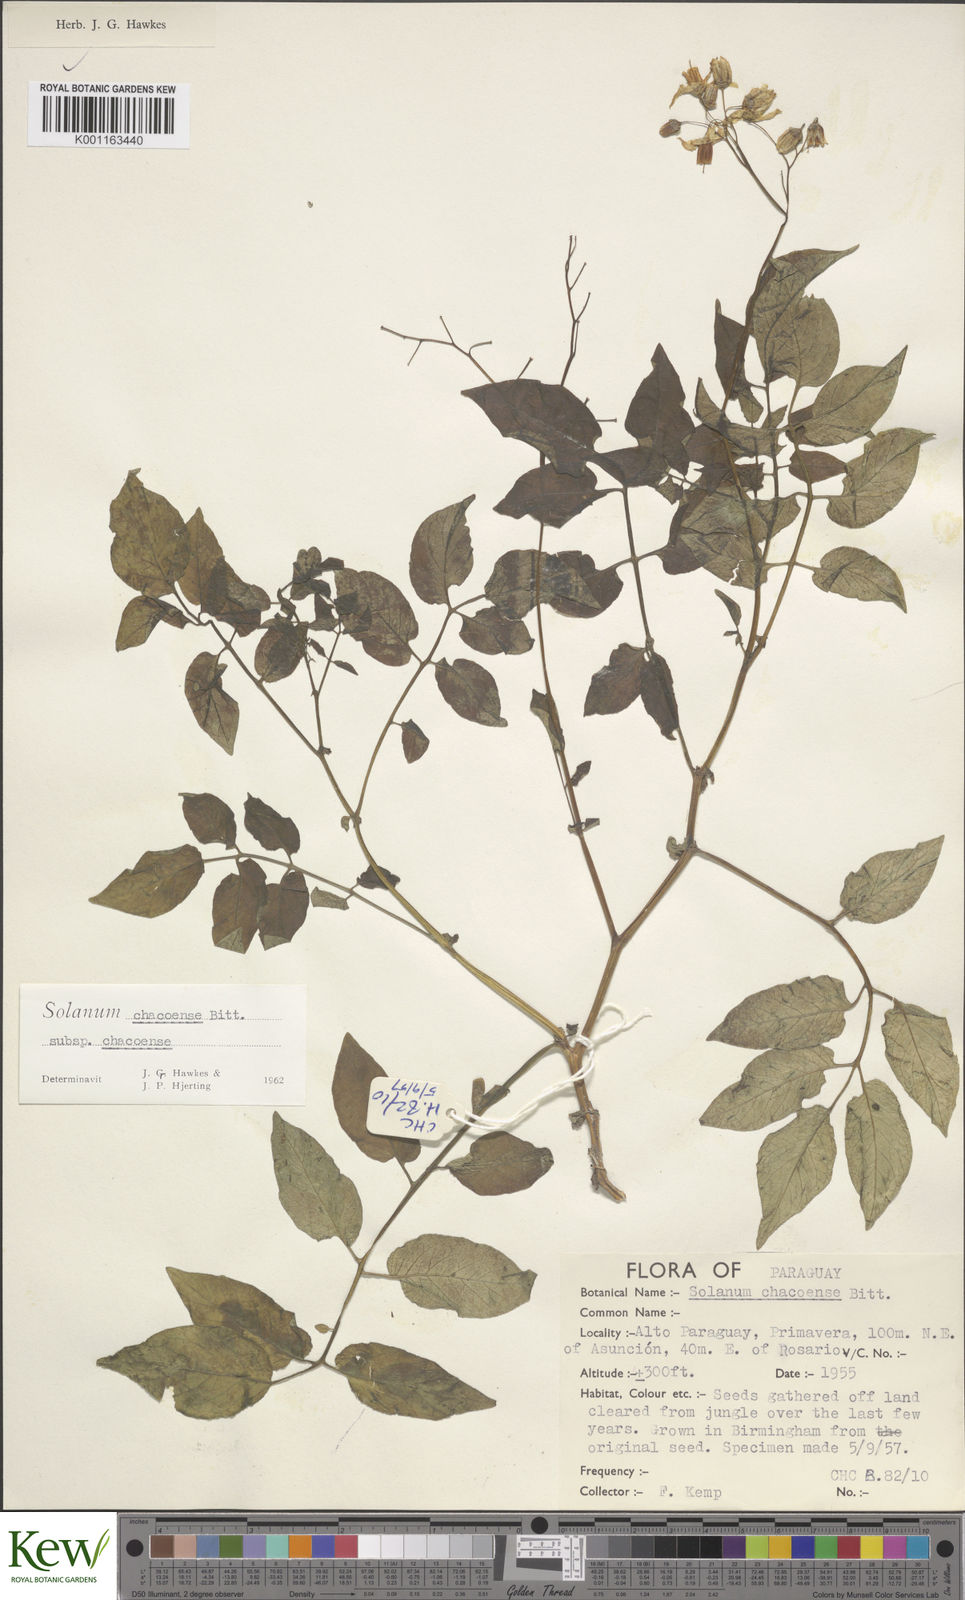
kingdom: Plantae
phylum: Tracheophyta
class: Magnoliopsida
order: Solanales
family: Solanaceae
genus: Solanum
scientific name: Solanum chacoense
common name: Chaco potato
